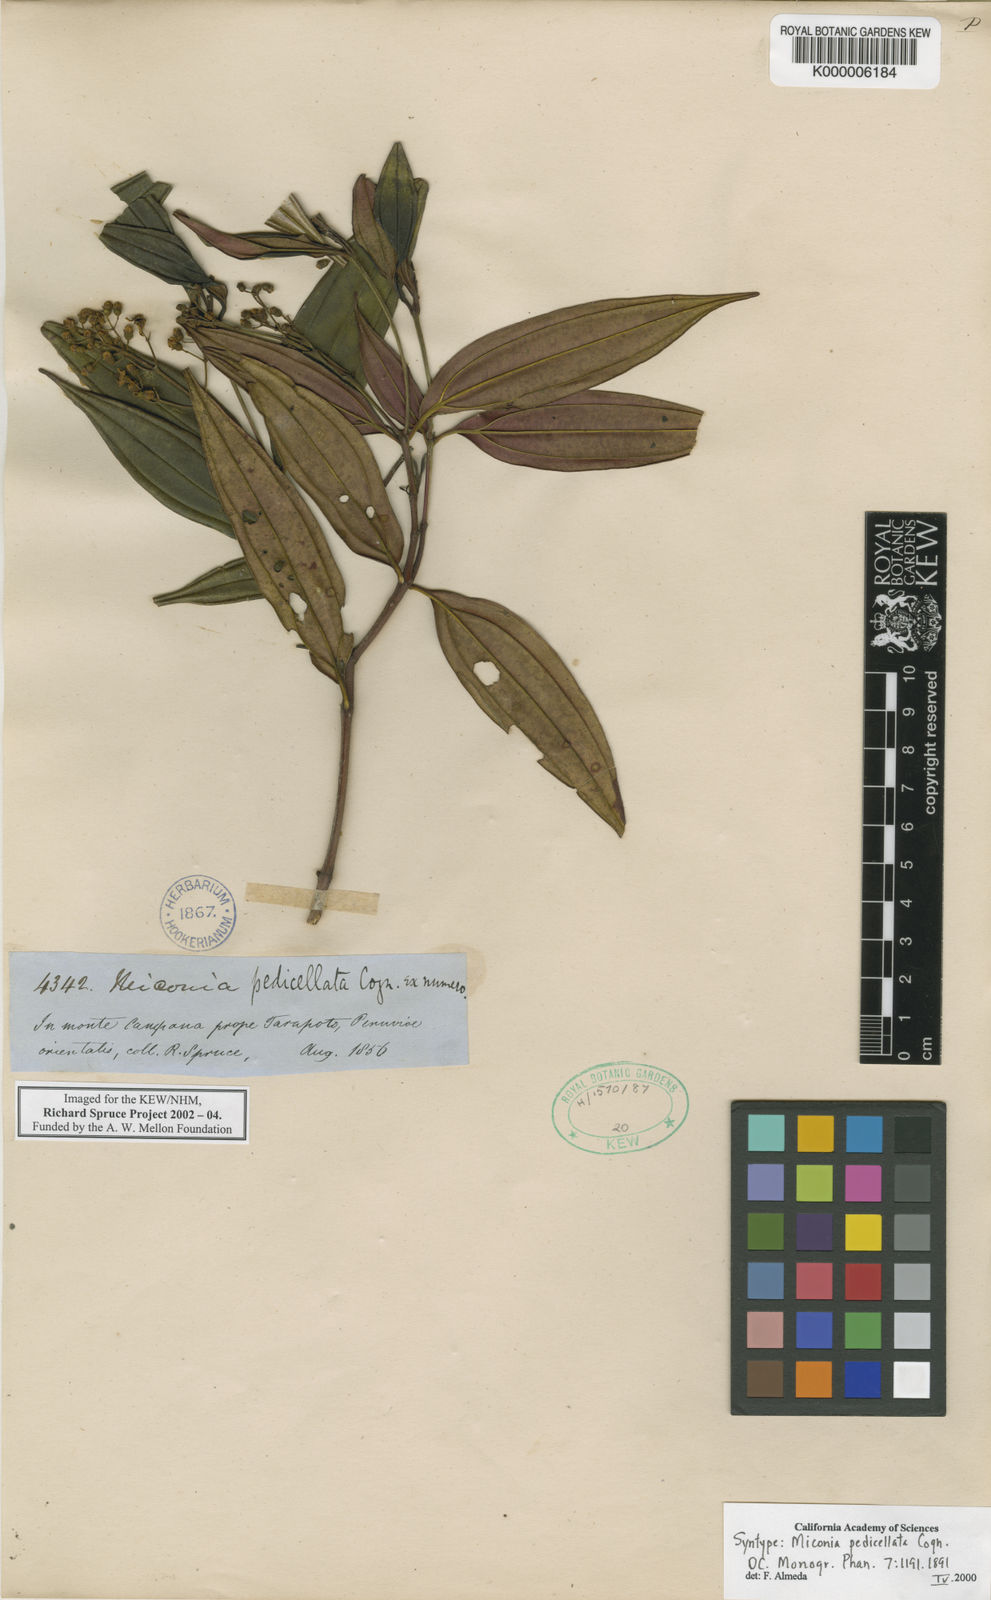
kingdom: Plantae
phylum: Tracheophyta
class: Magnoliopsida
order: Myrtales
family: Melastomataceae
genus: Miconia
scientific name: Miconia pedicellata
